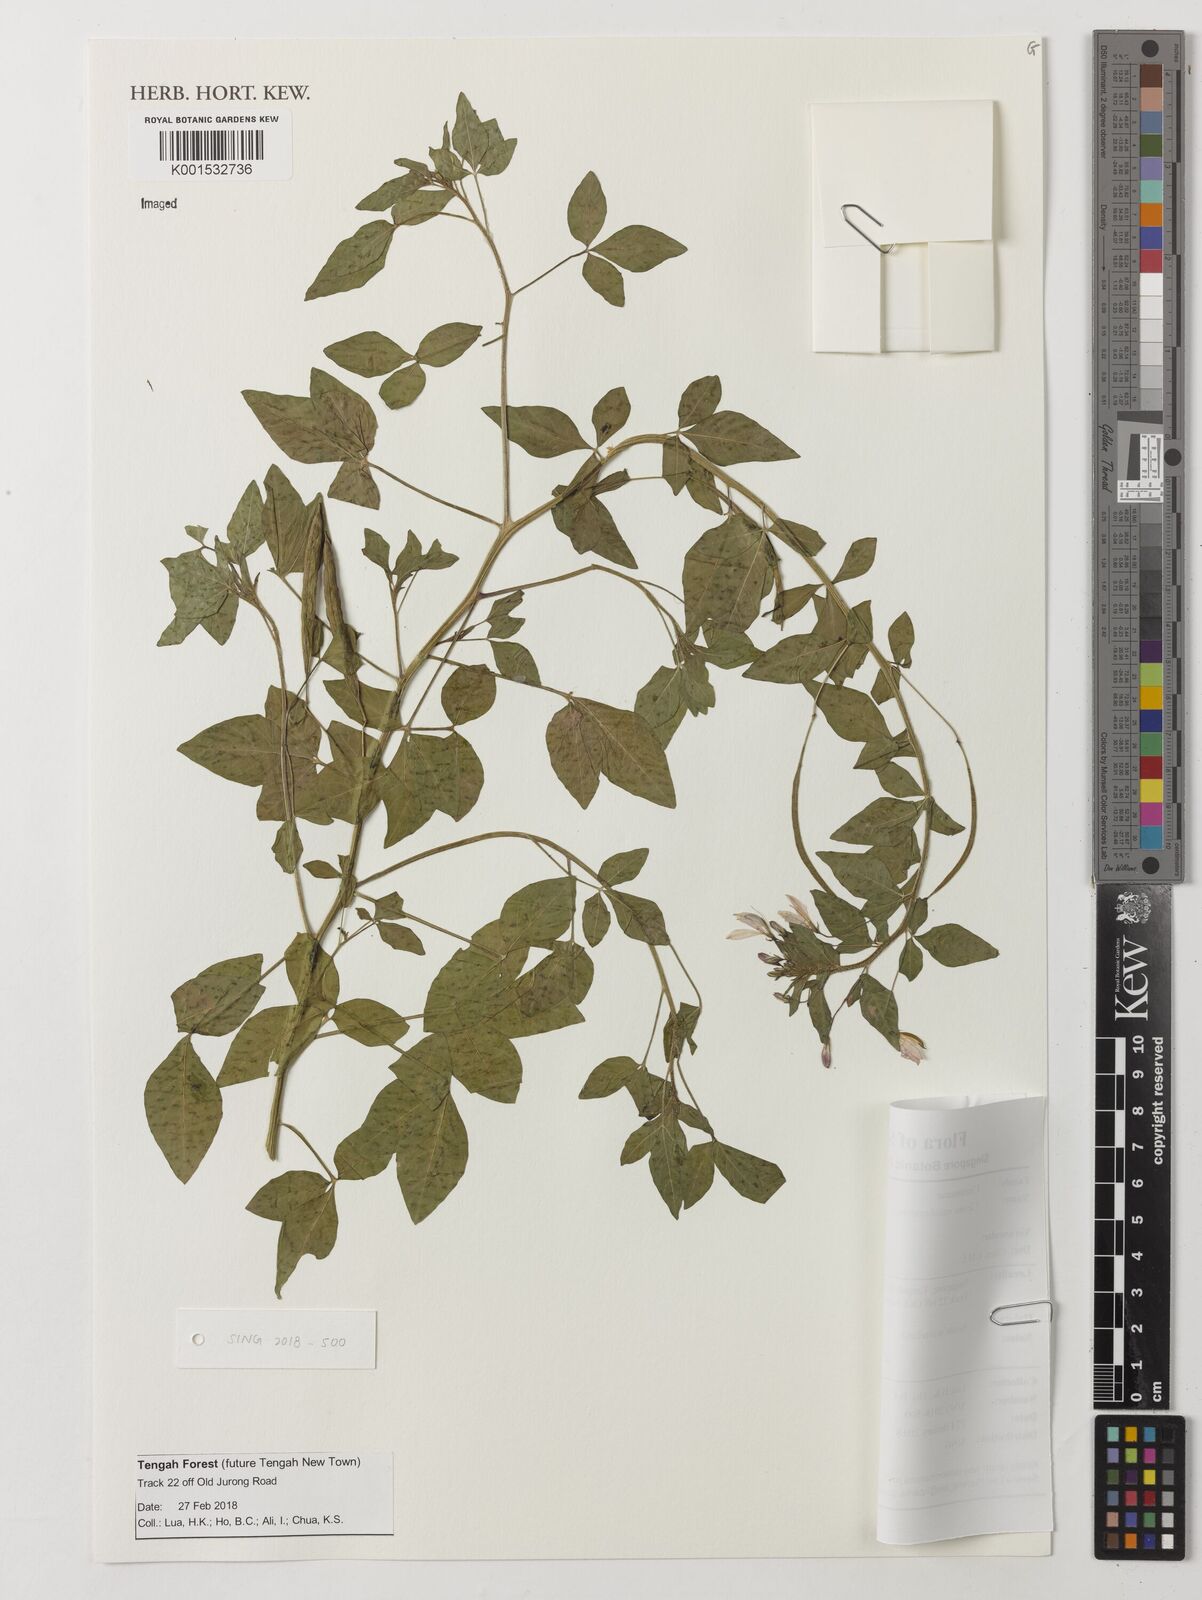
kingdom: Plantae
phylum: Tracheophyta
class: Magnoliopsida
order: Brassicales
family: Cleomaceae
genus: Sieruela
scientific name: Sieruela rutidosperma
